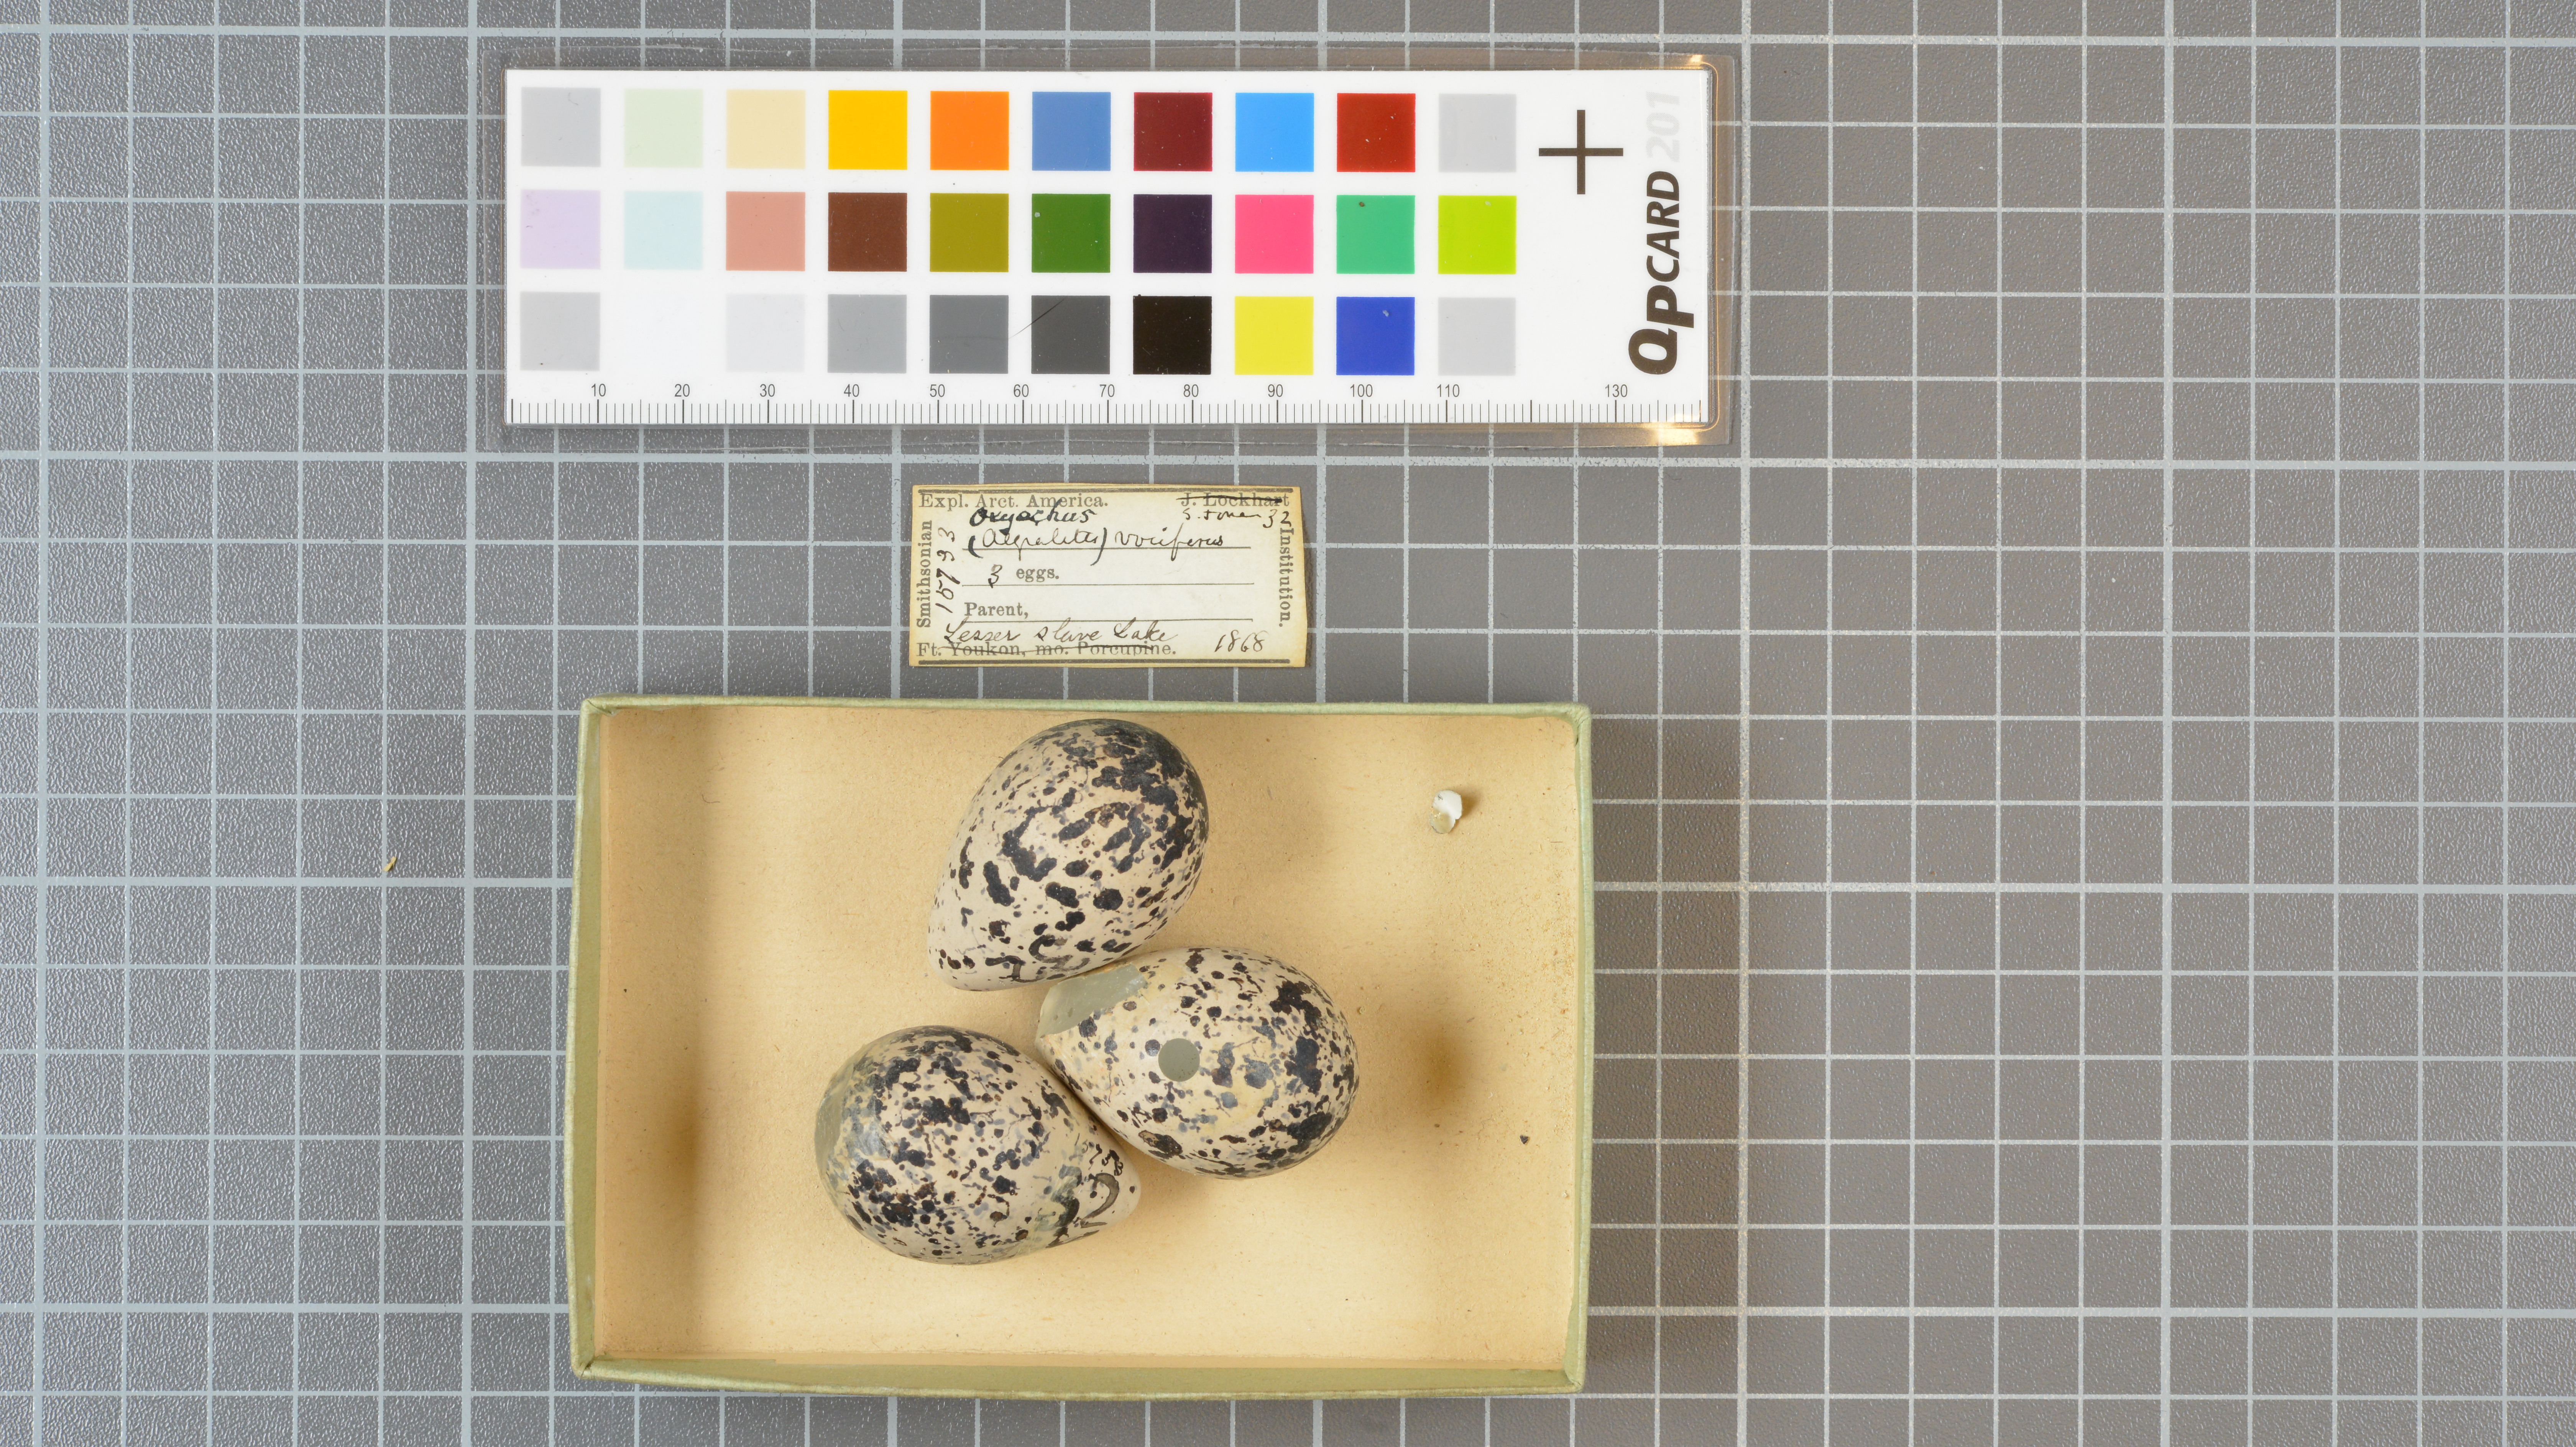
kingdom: Animalia
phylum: Chordata
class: Aves
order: Charadriiformes
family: Charadriidae
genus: Charadrius
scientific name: Charadrius vociferus
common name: Killdeer
